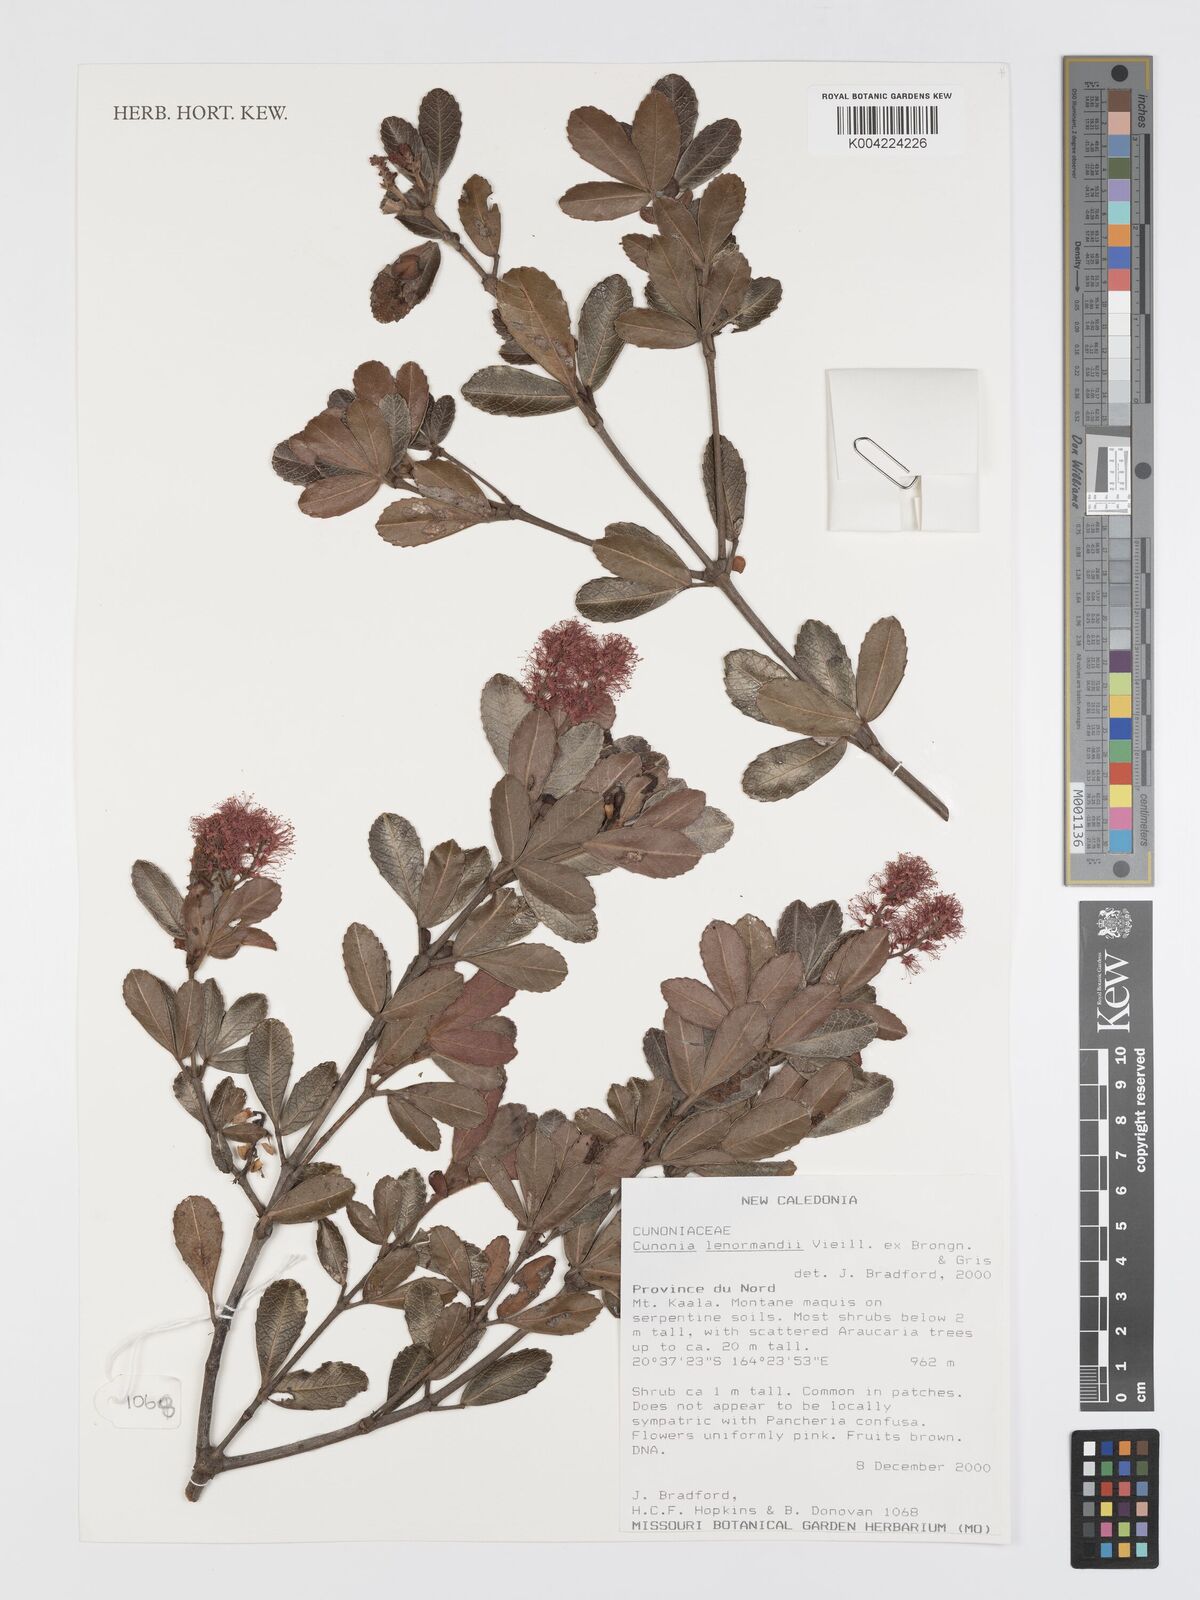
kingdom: Plantae
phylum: Tracheophyta
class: Magnoliopsida
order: Oxalidales
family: Cunoniaceae
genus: Cunonia
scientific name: Cunonia lenormandii
